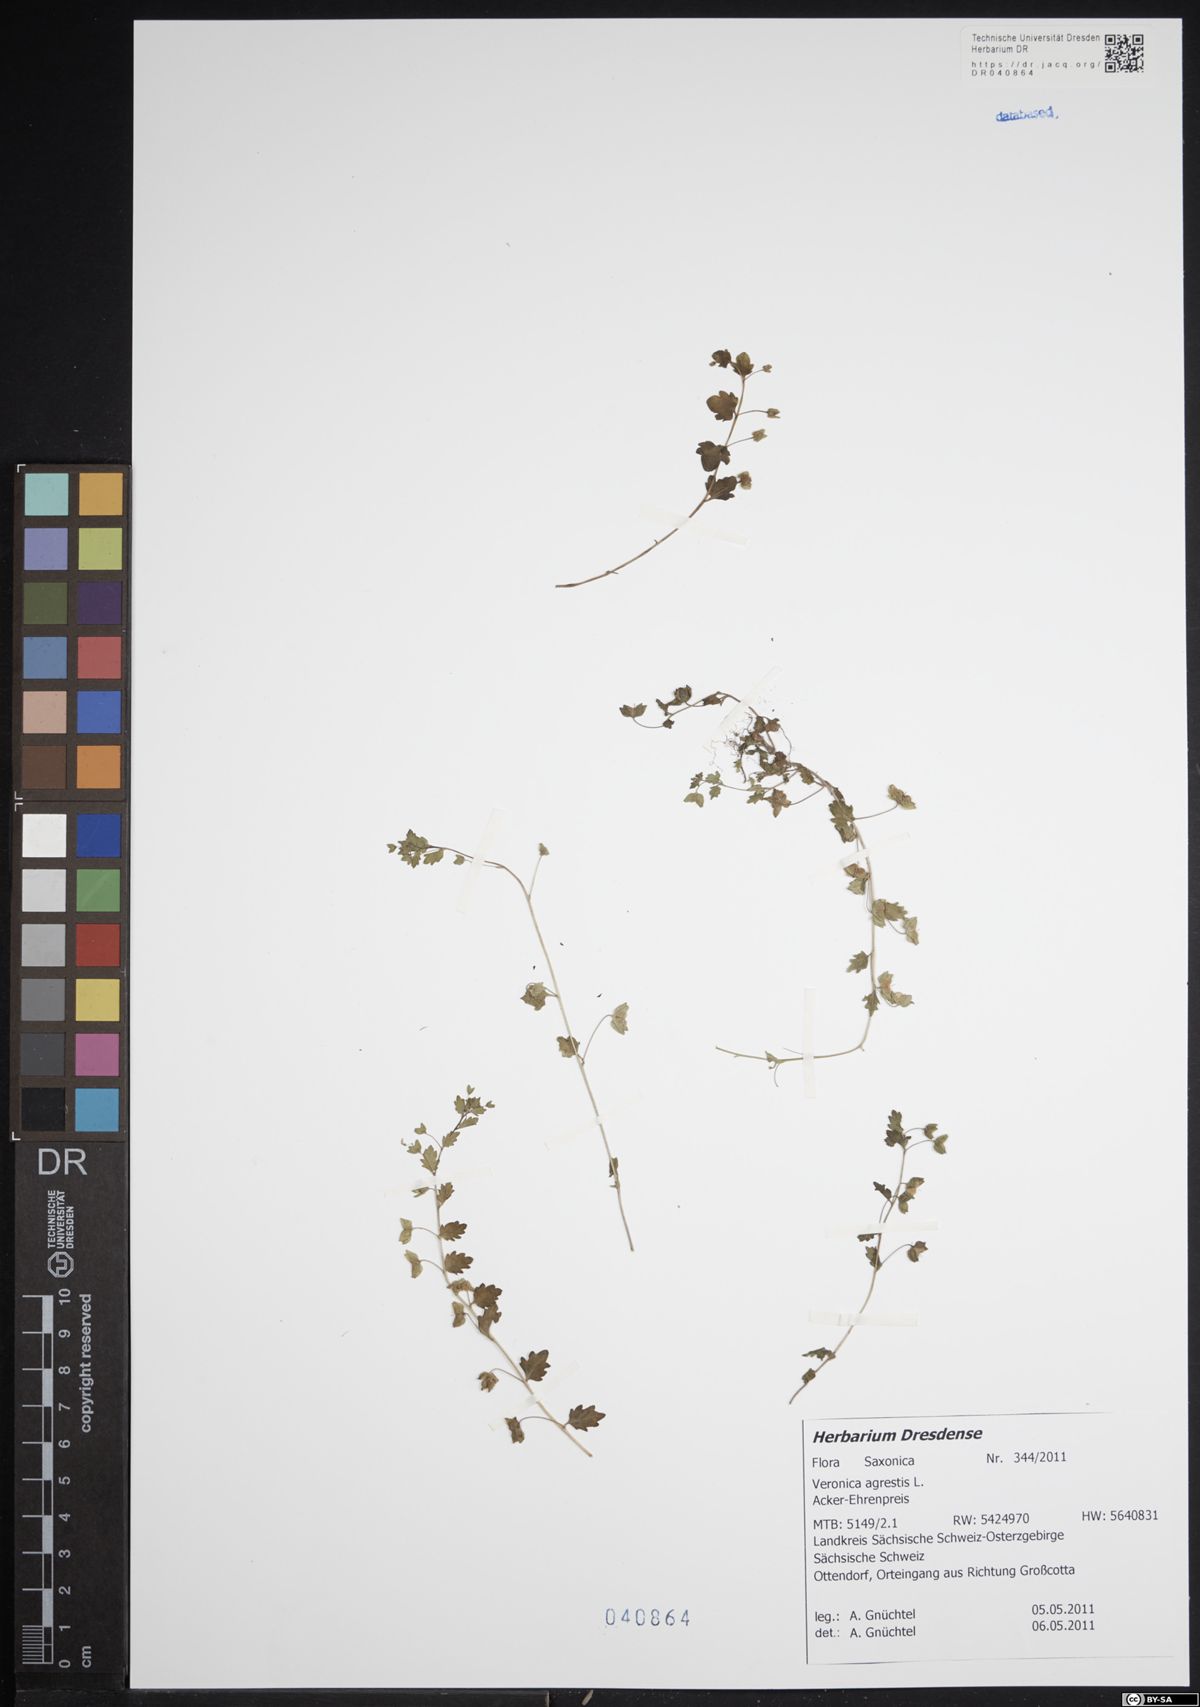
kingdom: Plantae
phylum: Tracheophyta
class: Magnoliopsida
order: Lamiales
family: Plantaginaceae
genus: Veronica
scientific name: Veronica agrestis
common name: Green field-speedwell
